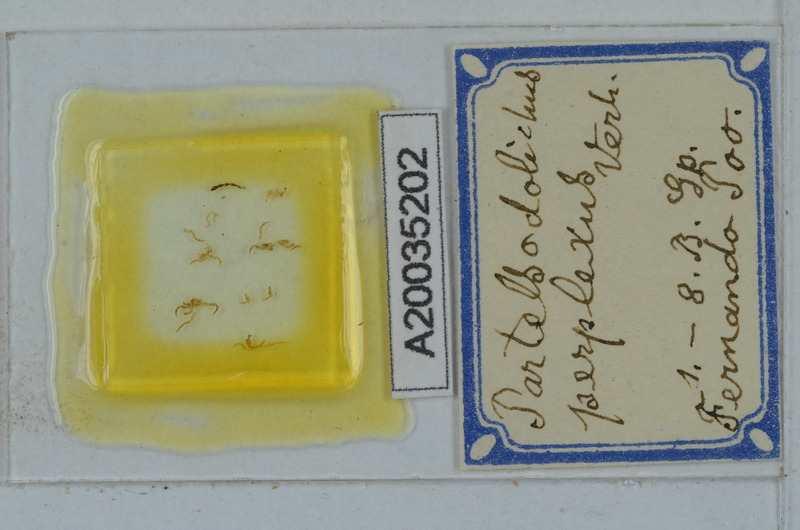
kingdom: Animalia
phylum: Arthropoda
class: Diplopoda
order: Polydesmida
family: Paradoxosomatidae
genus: Scolodesmus
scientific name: Scolodesmus perplexus
